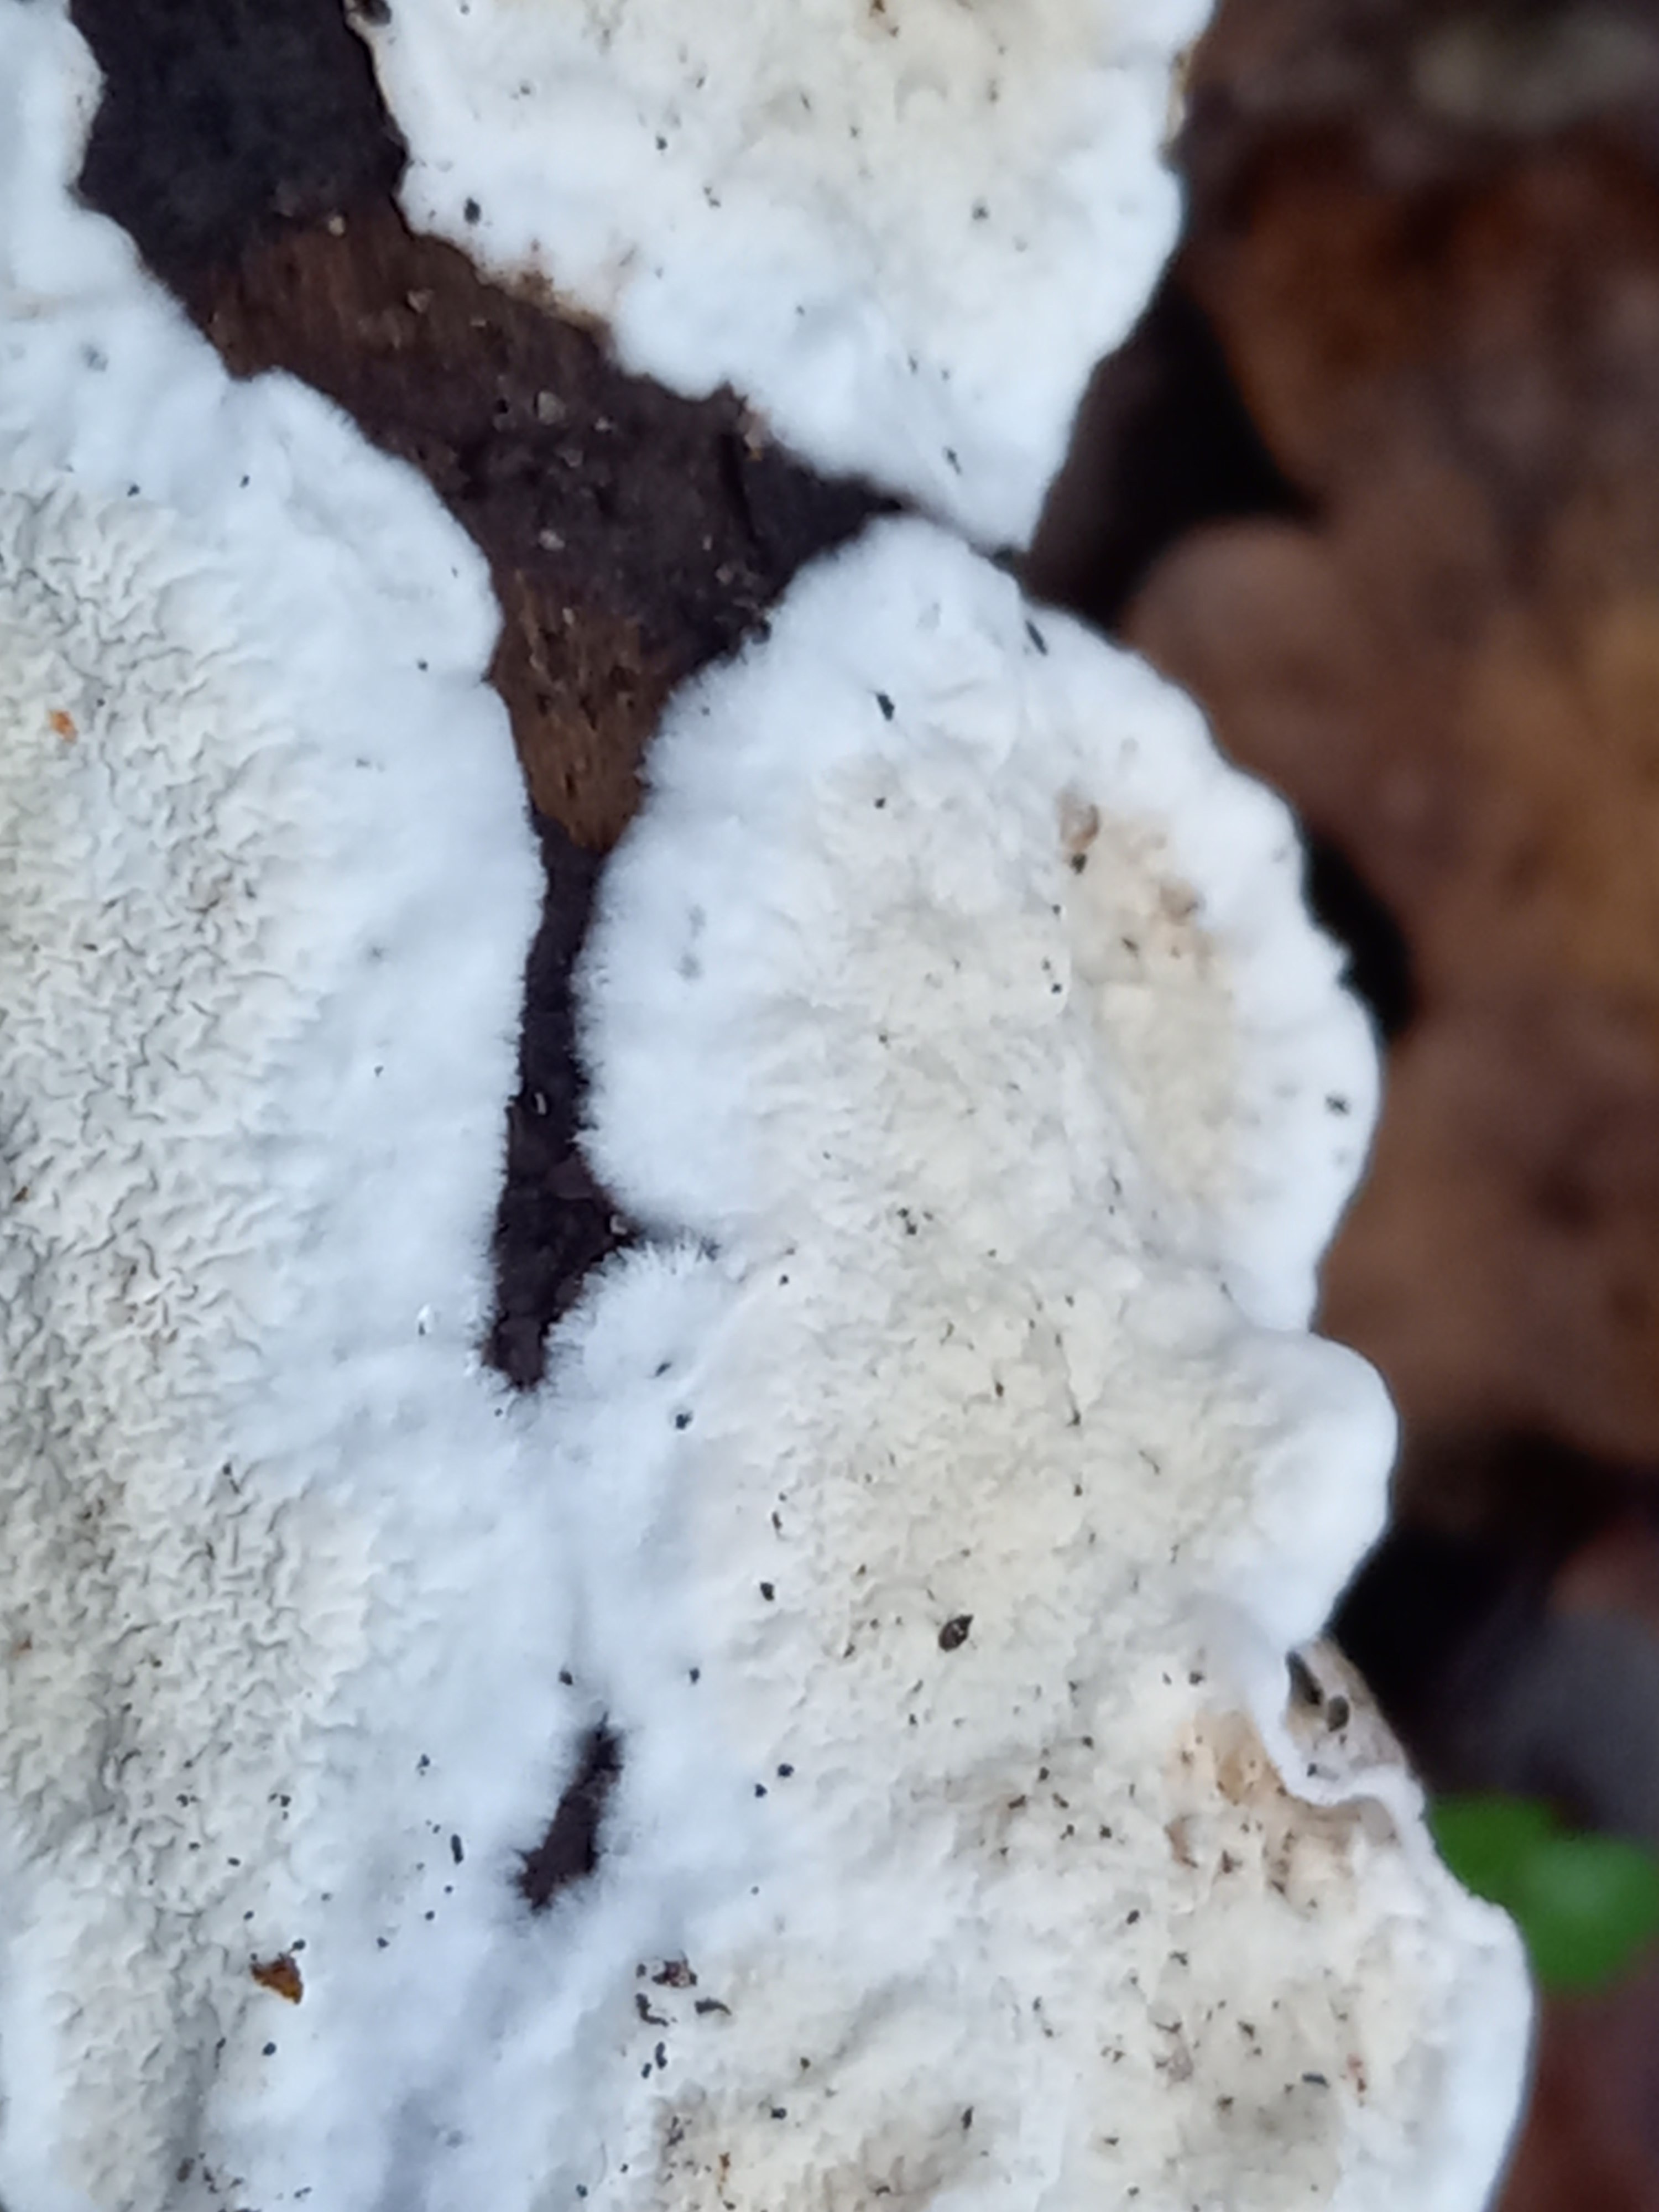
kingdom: Fungi
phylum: Basidiomycota
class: Agaricomycetes
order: Polyporales
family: Irpicaceae
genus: Byssomerulius
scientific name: Byssomerulius corium
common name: læder-åresvamp
